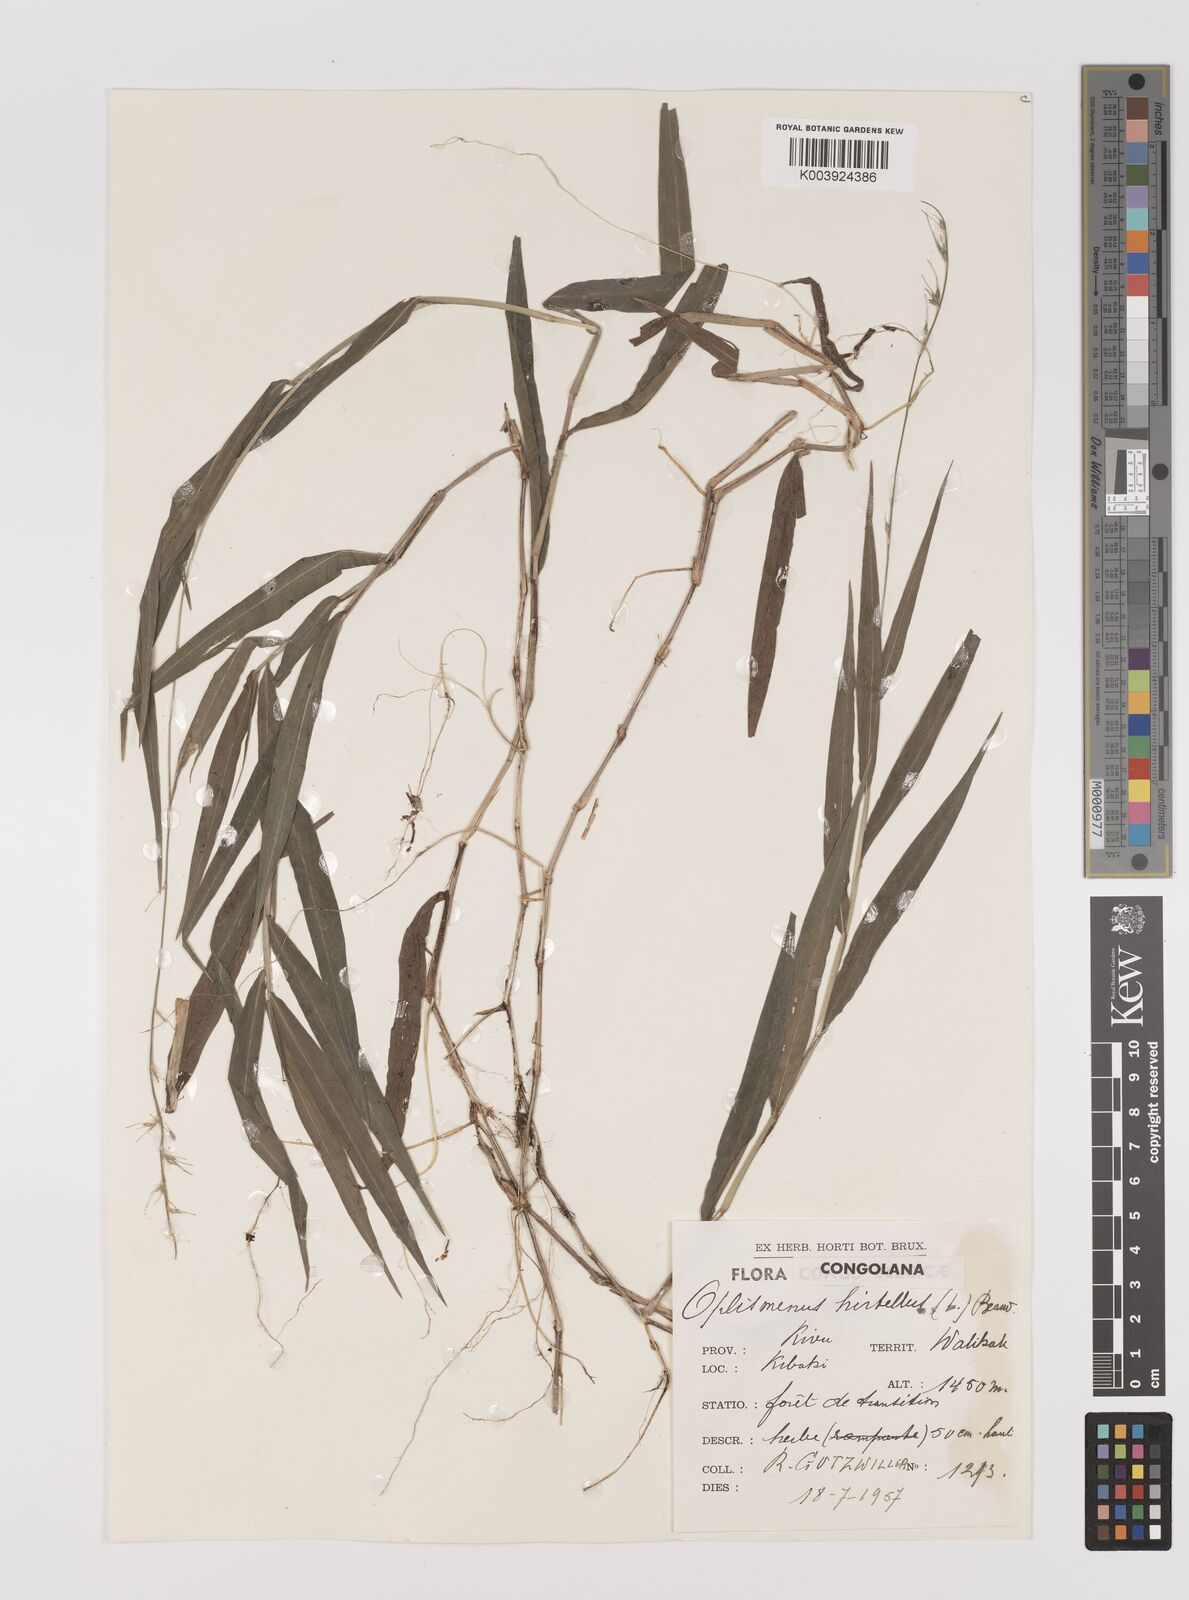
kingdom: Plantae
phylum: Tracheophyta
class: Liliopsida
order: Poales
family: Poaceae
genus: Oplismenus
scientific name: Oplismenus undulatifolius
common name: Wavyleaf basketgrass
